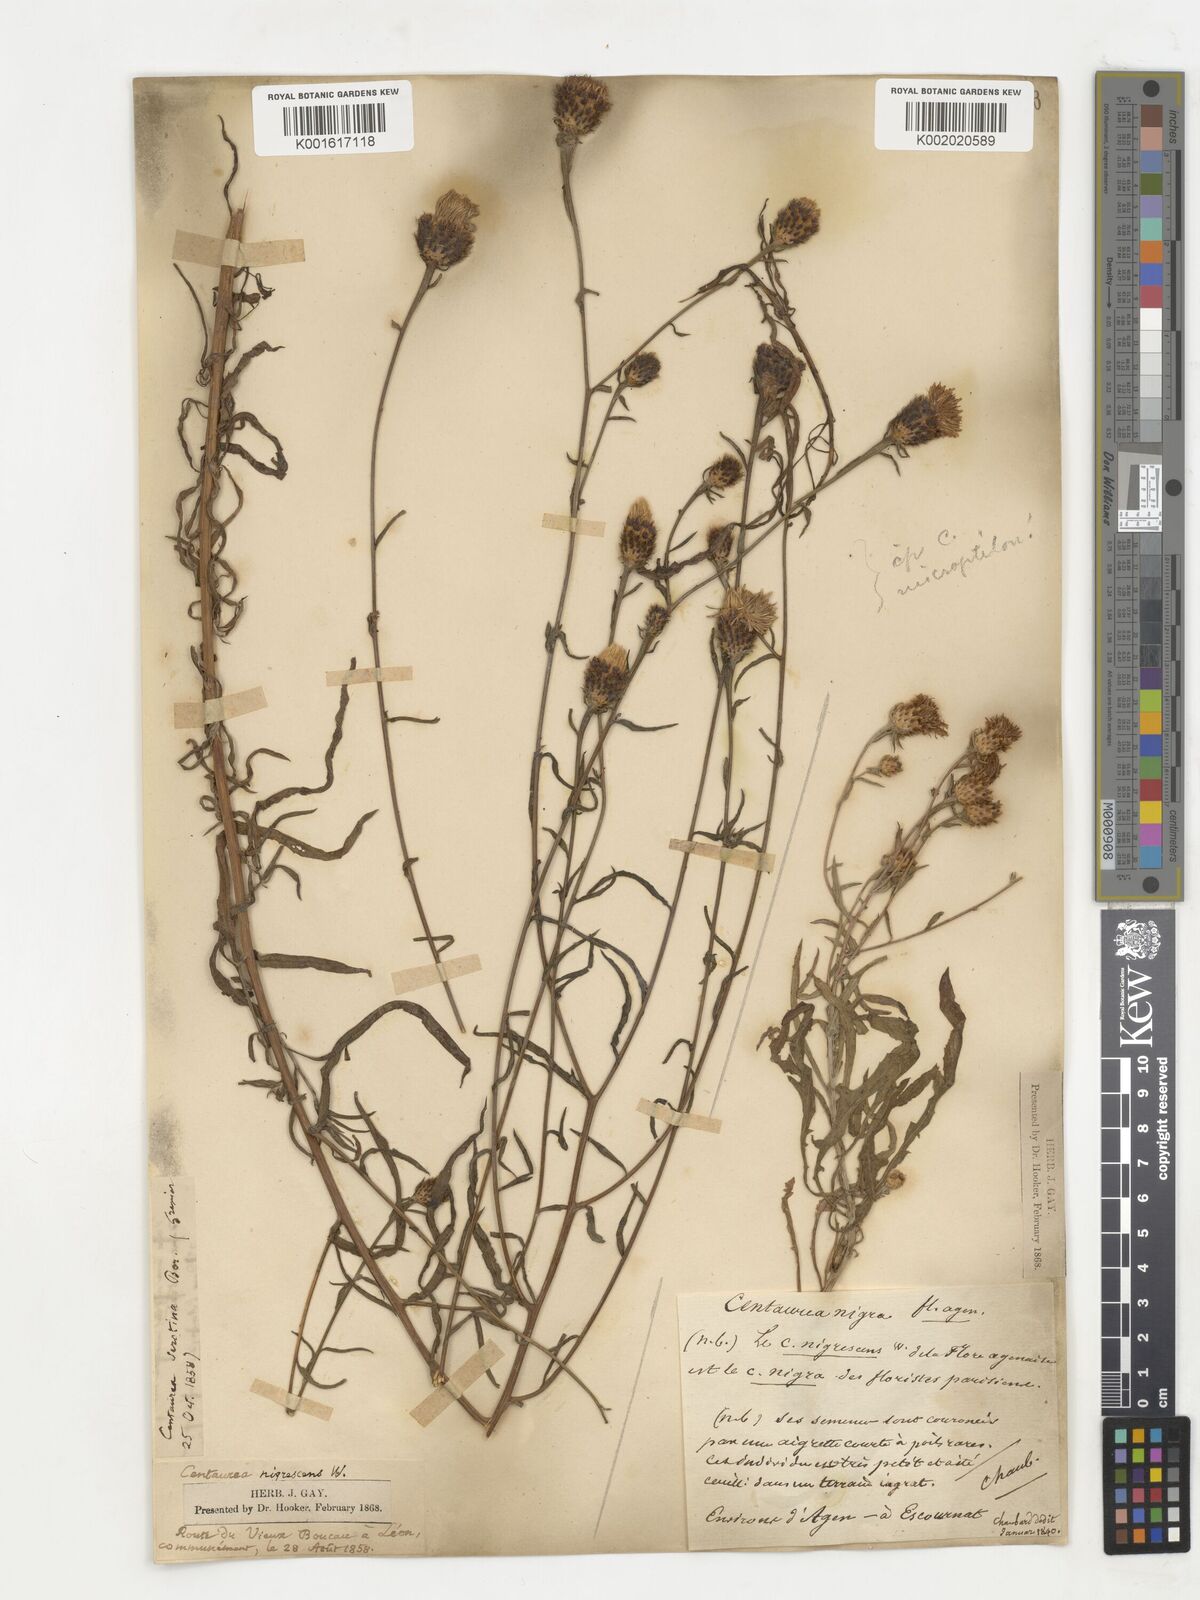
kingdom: Plantae
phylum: Tracheophyta
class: Magnoliopsida
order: Asterales
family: Asteraceae
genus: Centaurea
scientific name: Centaurea nigra
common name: Lesser knapweed
